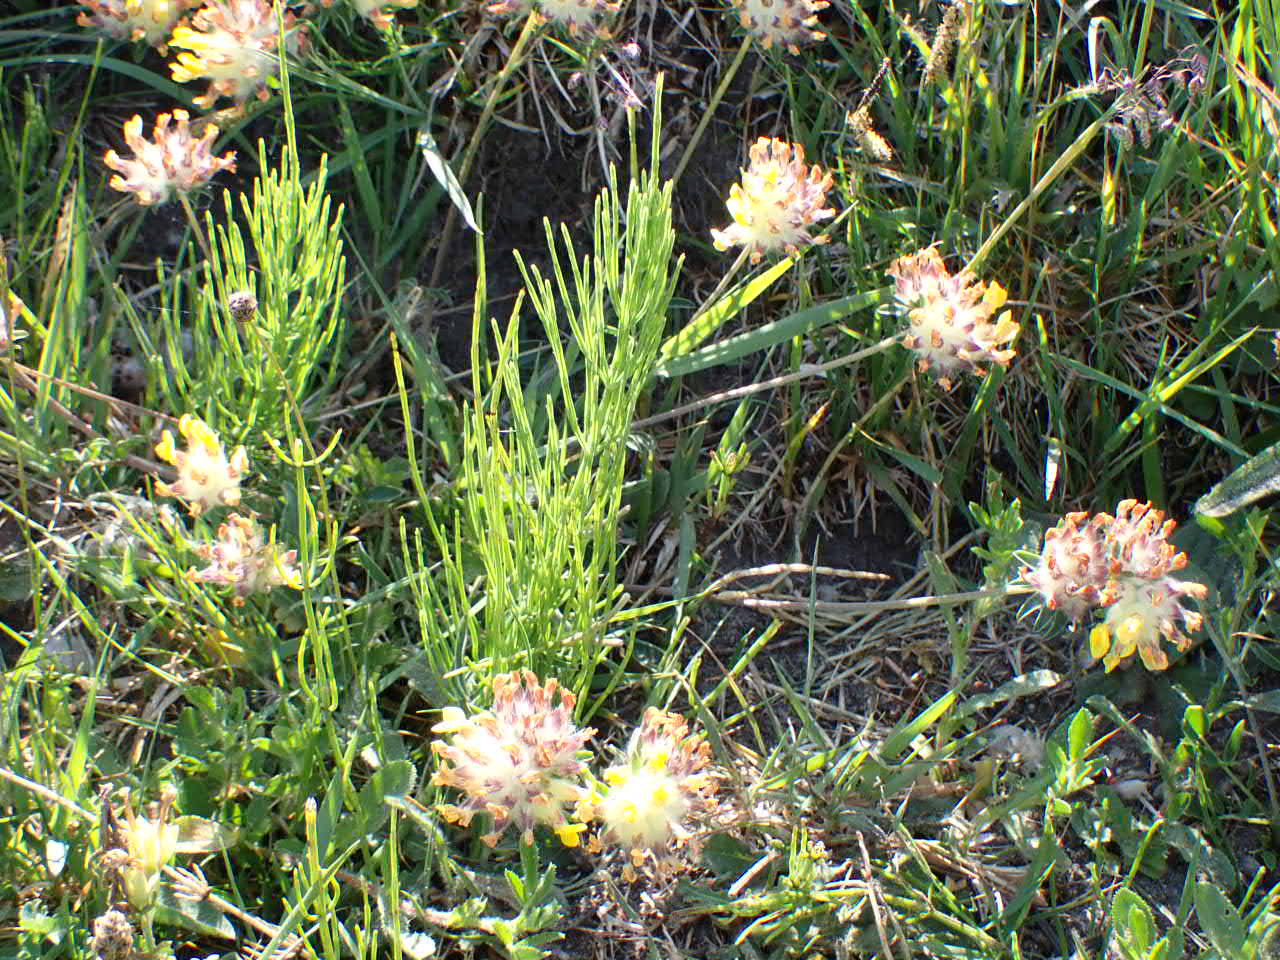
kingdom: Plantae
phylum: Tracheophyta
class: Magnoliopsida
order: Fabales
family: Fabaceae
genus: Anthyllis
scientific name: Anthyllis vulneraria
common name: Rundbælg
